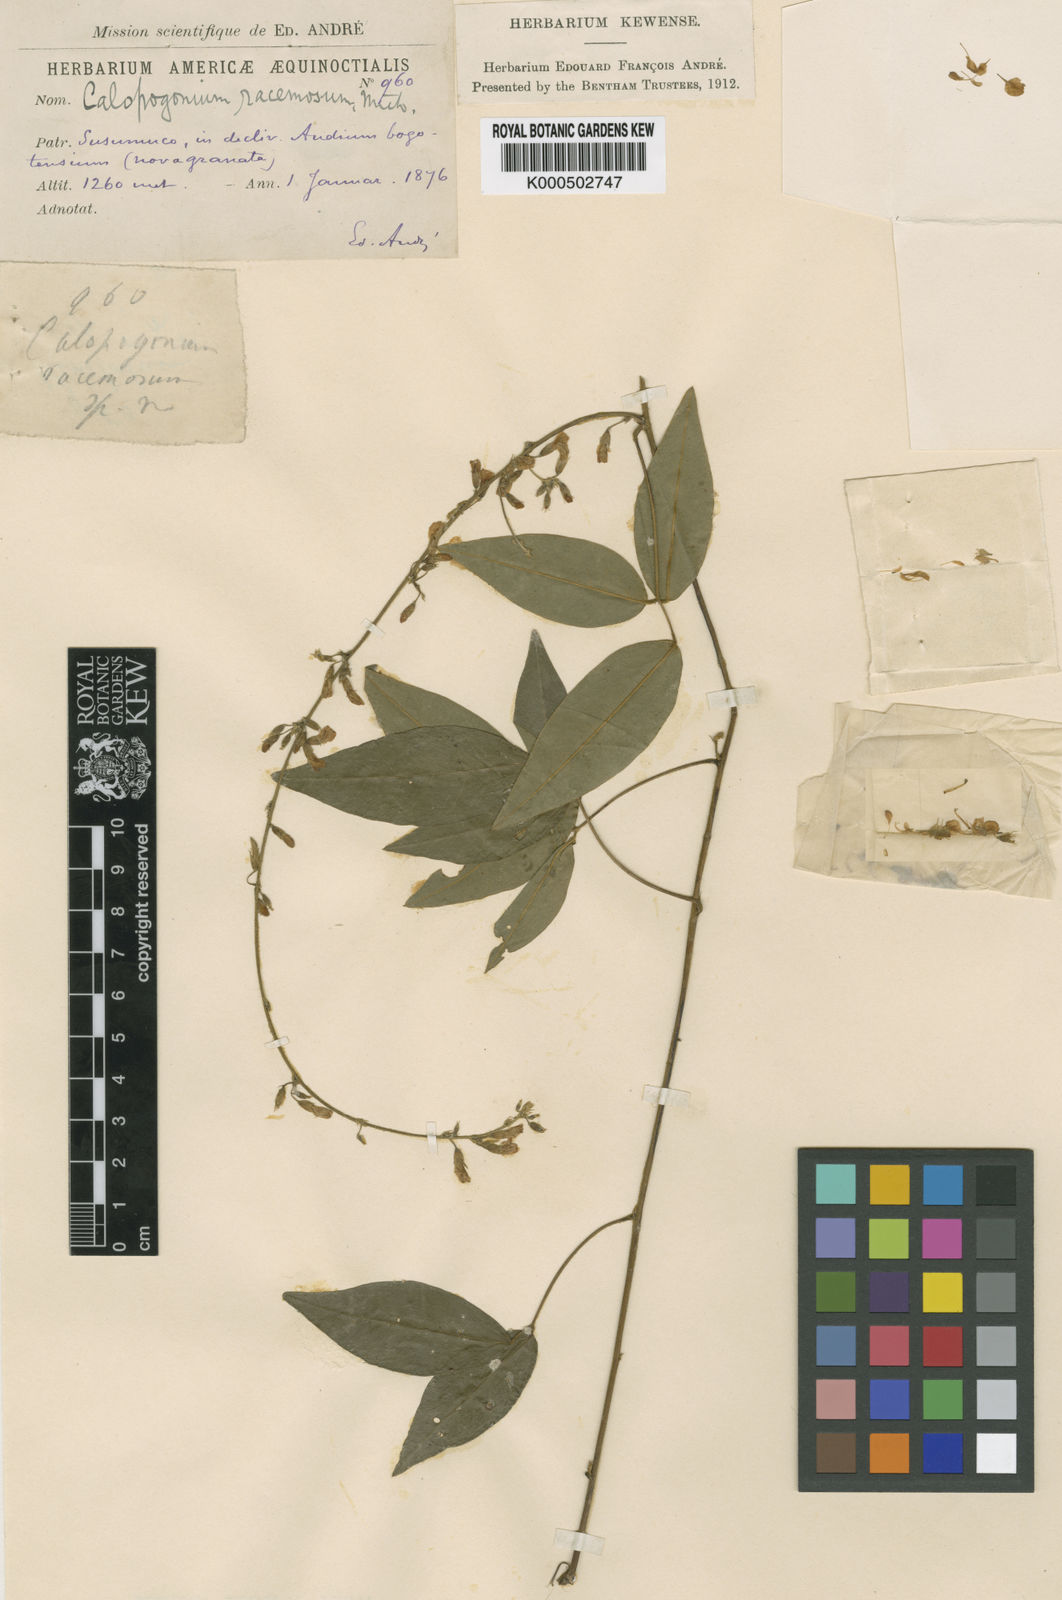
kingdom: Plantae
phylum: Tracheophyta
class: Magnoliopsida
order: Fabales
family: Fabaceae
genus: Calopogonium
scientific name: Calopogonium racemosum
